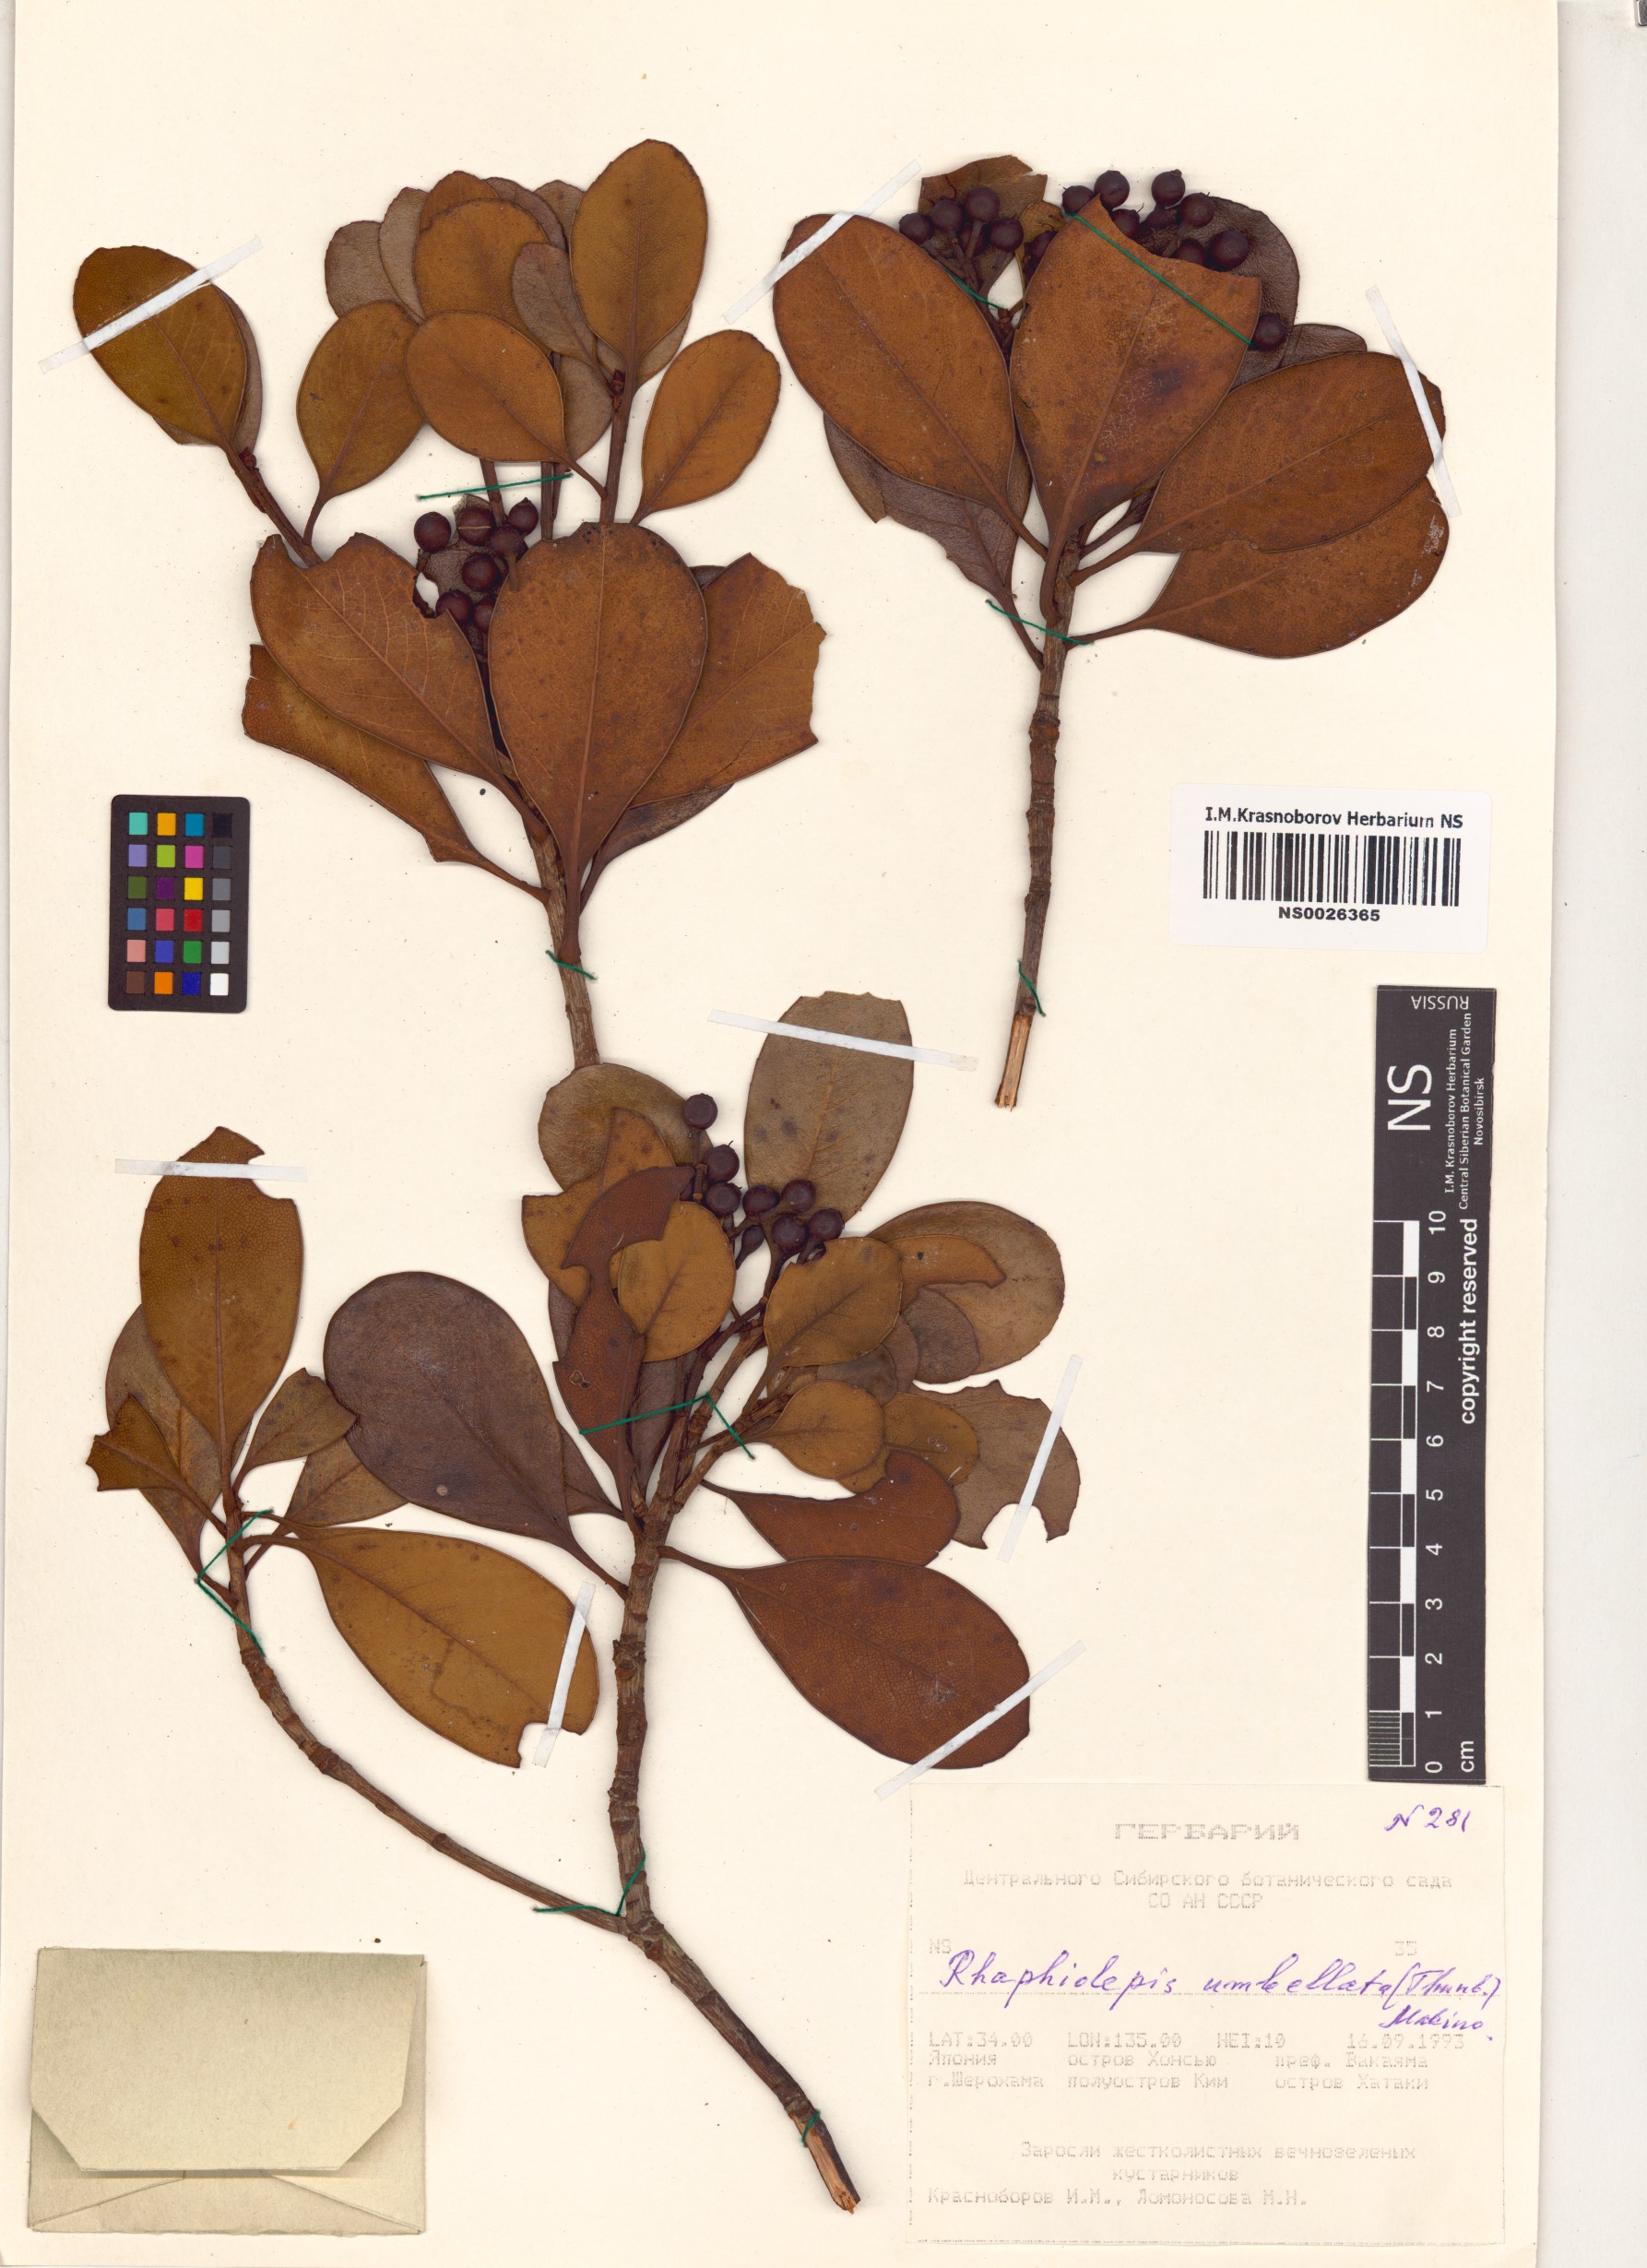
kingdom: Plantae
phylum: Tracheophyta
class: Magnoliopsida
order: Rosales
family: Rosaceae
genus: Rhaphiolepis
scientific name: Rhaphiolepis umbellata
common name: Yedda-hawthorn
